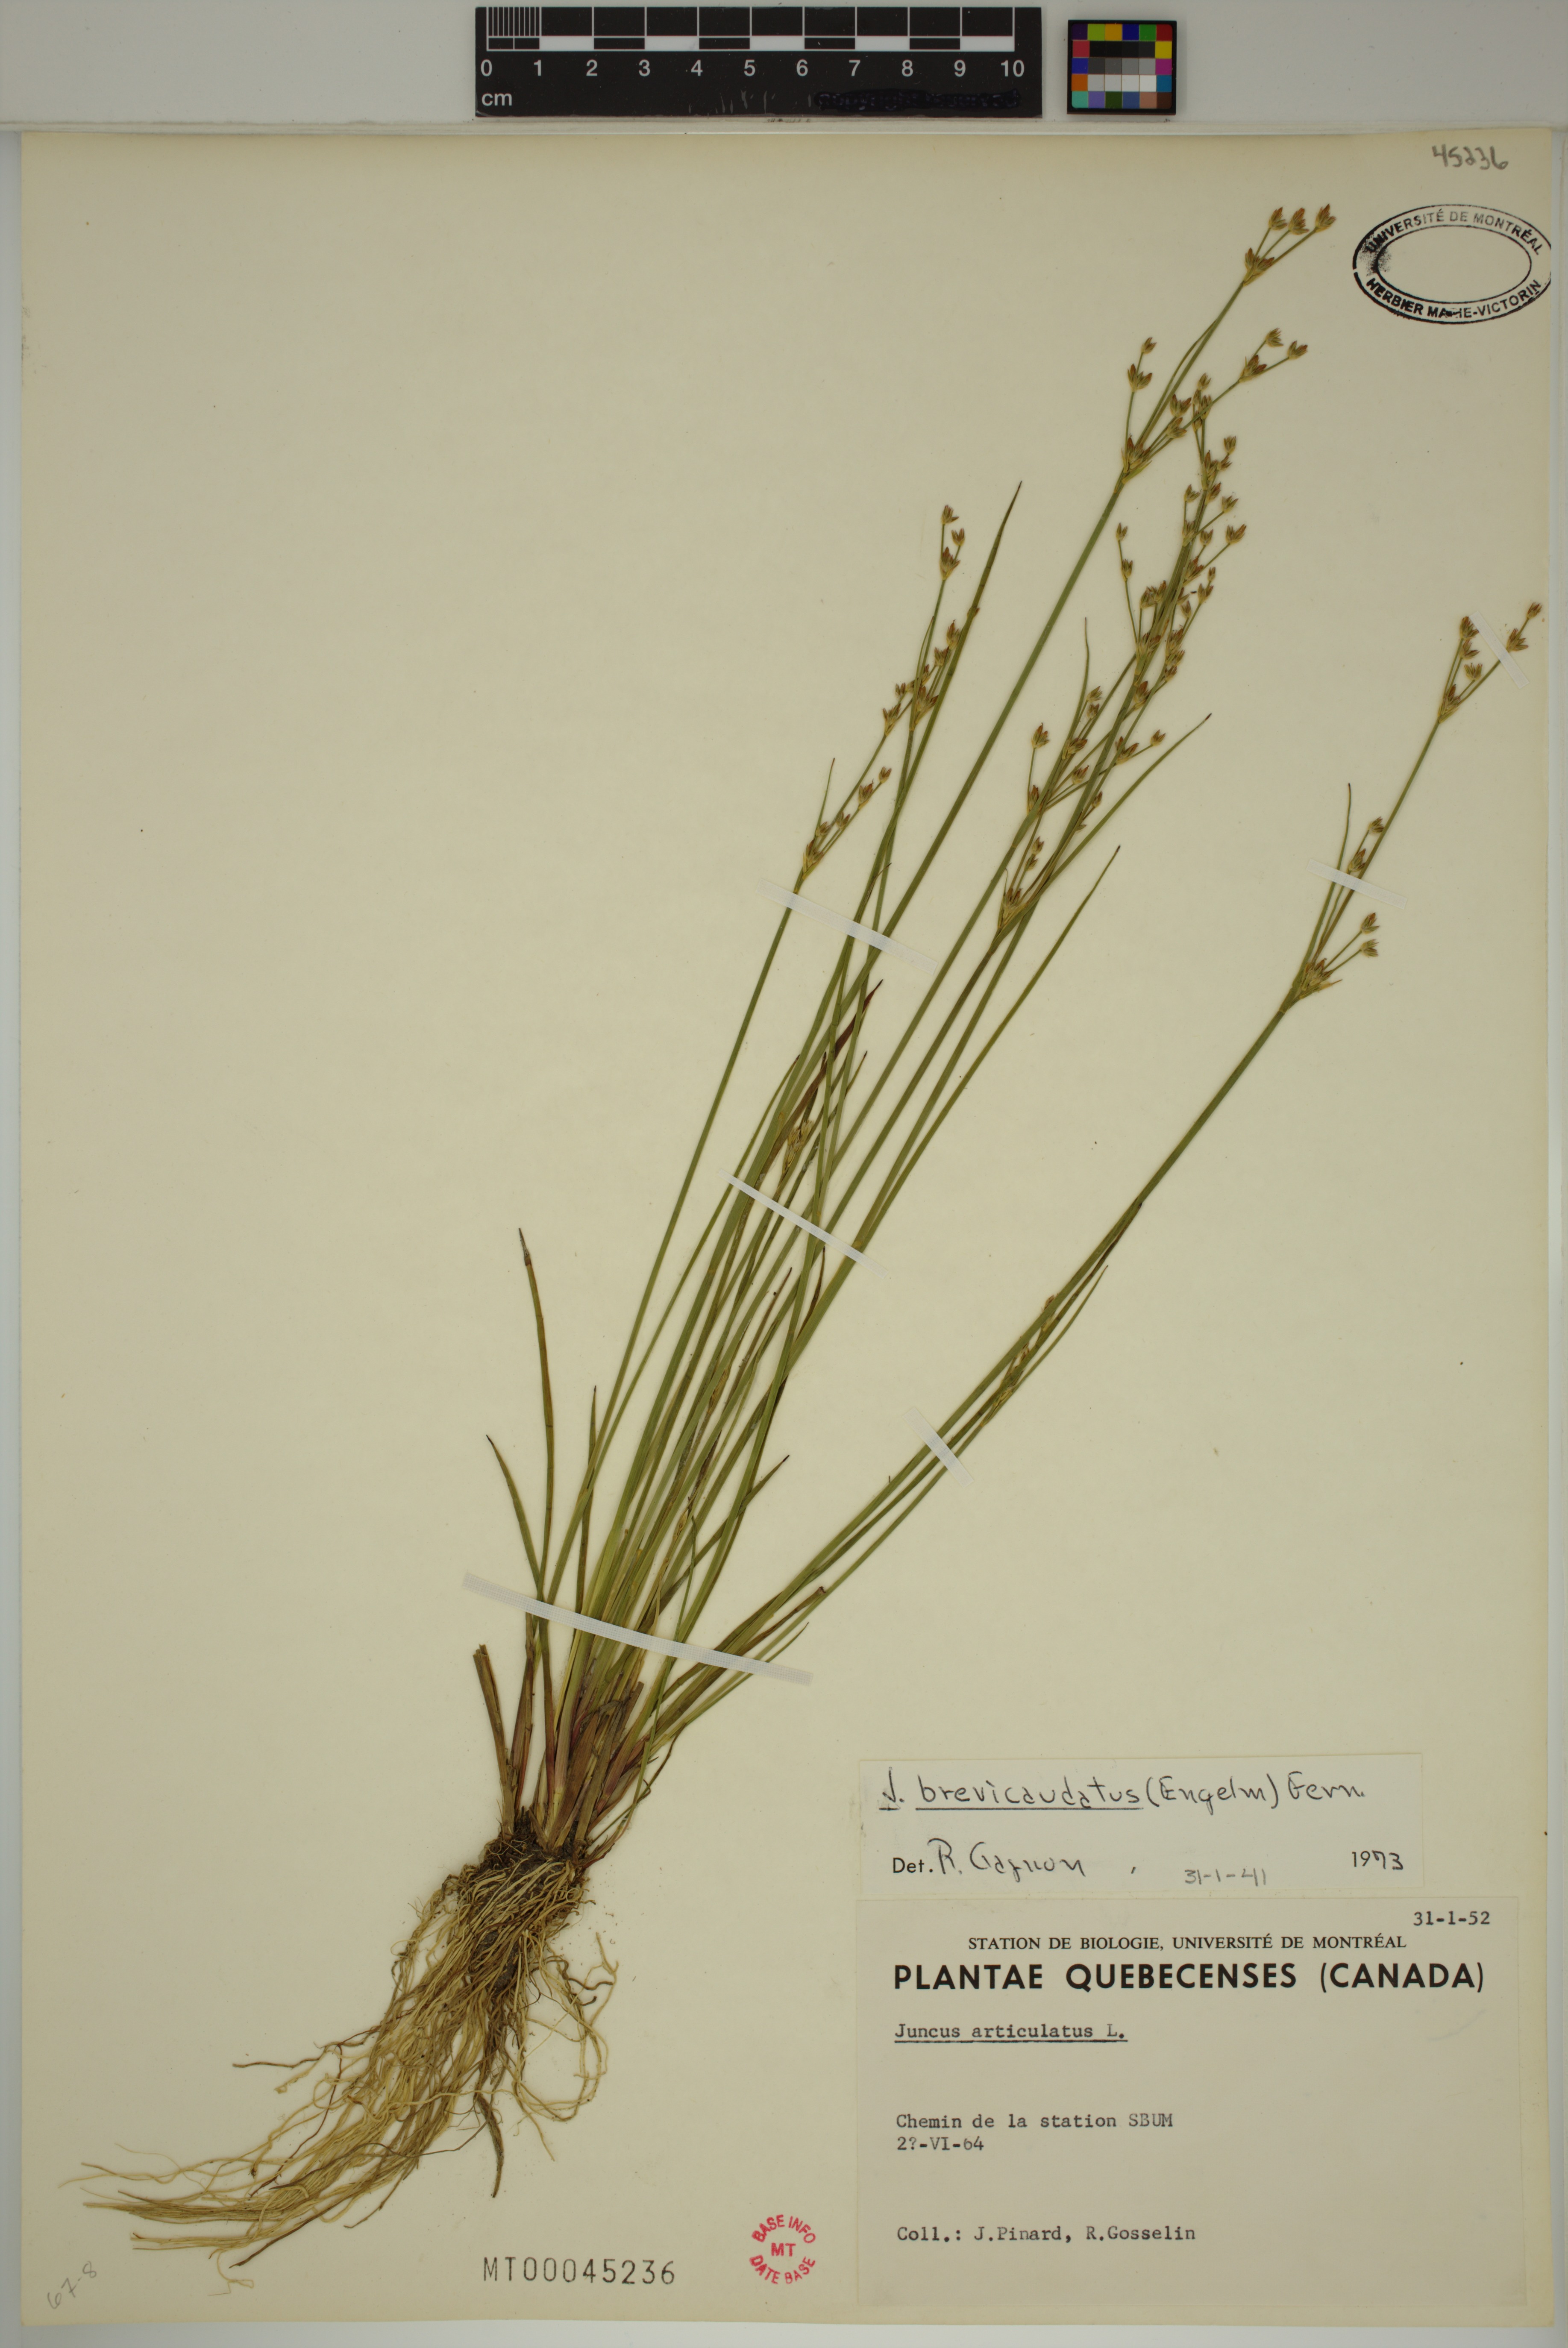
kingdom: Plantae
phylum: Tracheophyta
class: Liliopsida
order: Poales
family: Juncaceae
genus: Juncus
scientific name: Juncus brevicaudatus
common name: Narrow-panicle rush
